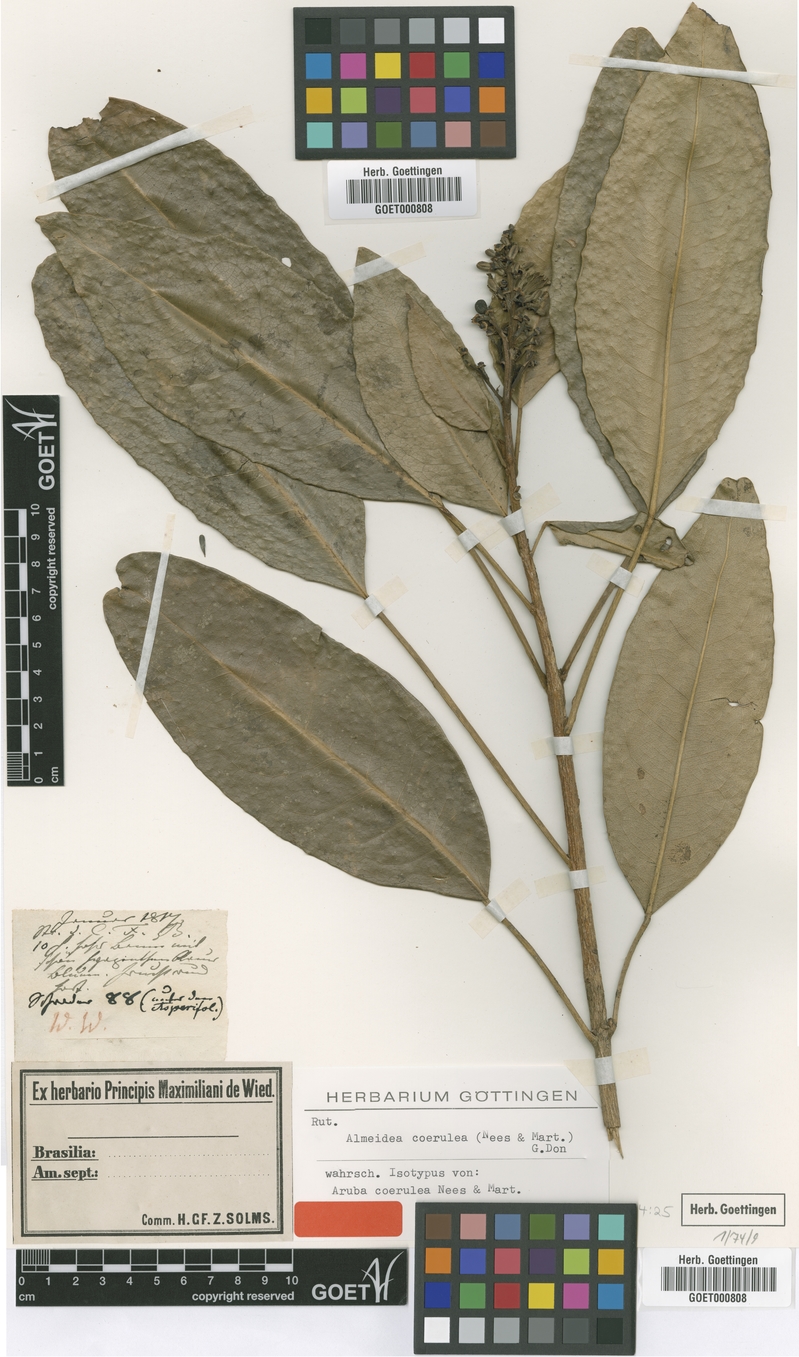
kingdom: Plantae
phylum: Tracheophyta
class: Magnoliopsida
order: Sapindales
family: Rutaceae
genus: Conchocarpus
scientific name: Conchocarpus coeruleus
